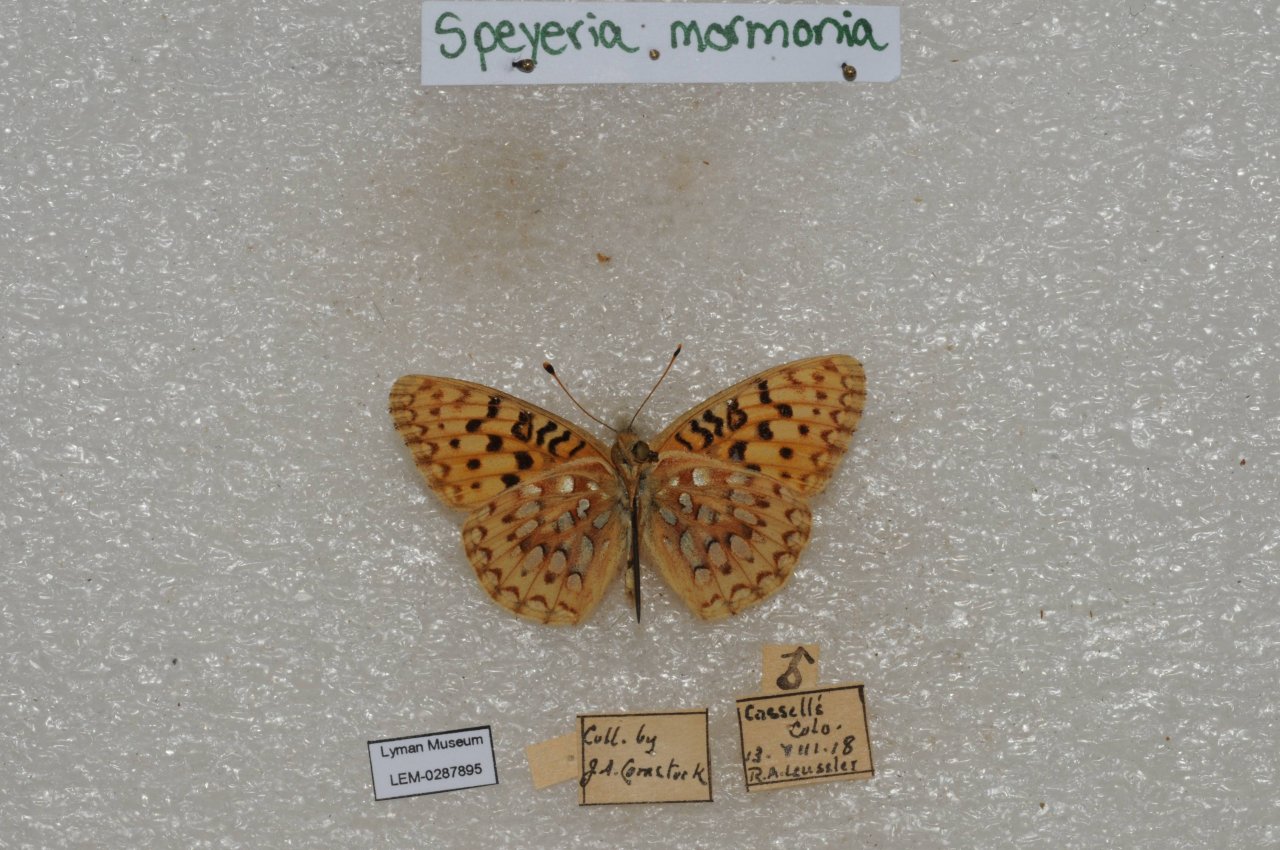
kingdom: Animalia
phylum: Arthropoda
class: Insecta
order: Lepidoptera
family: Nymphalidae
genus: Speyeria
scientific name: Speyeria mormonia
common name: Mormon Fritillary
